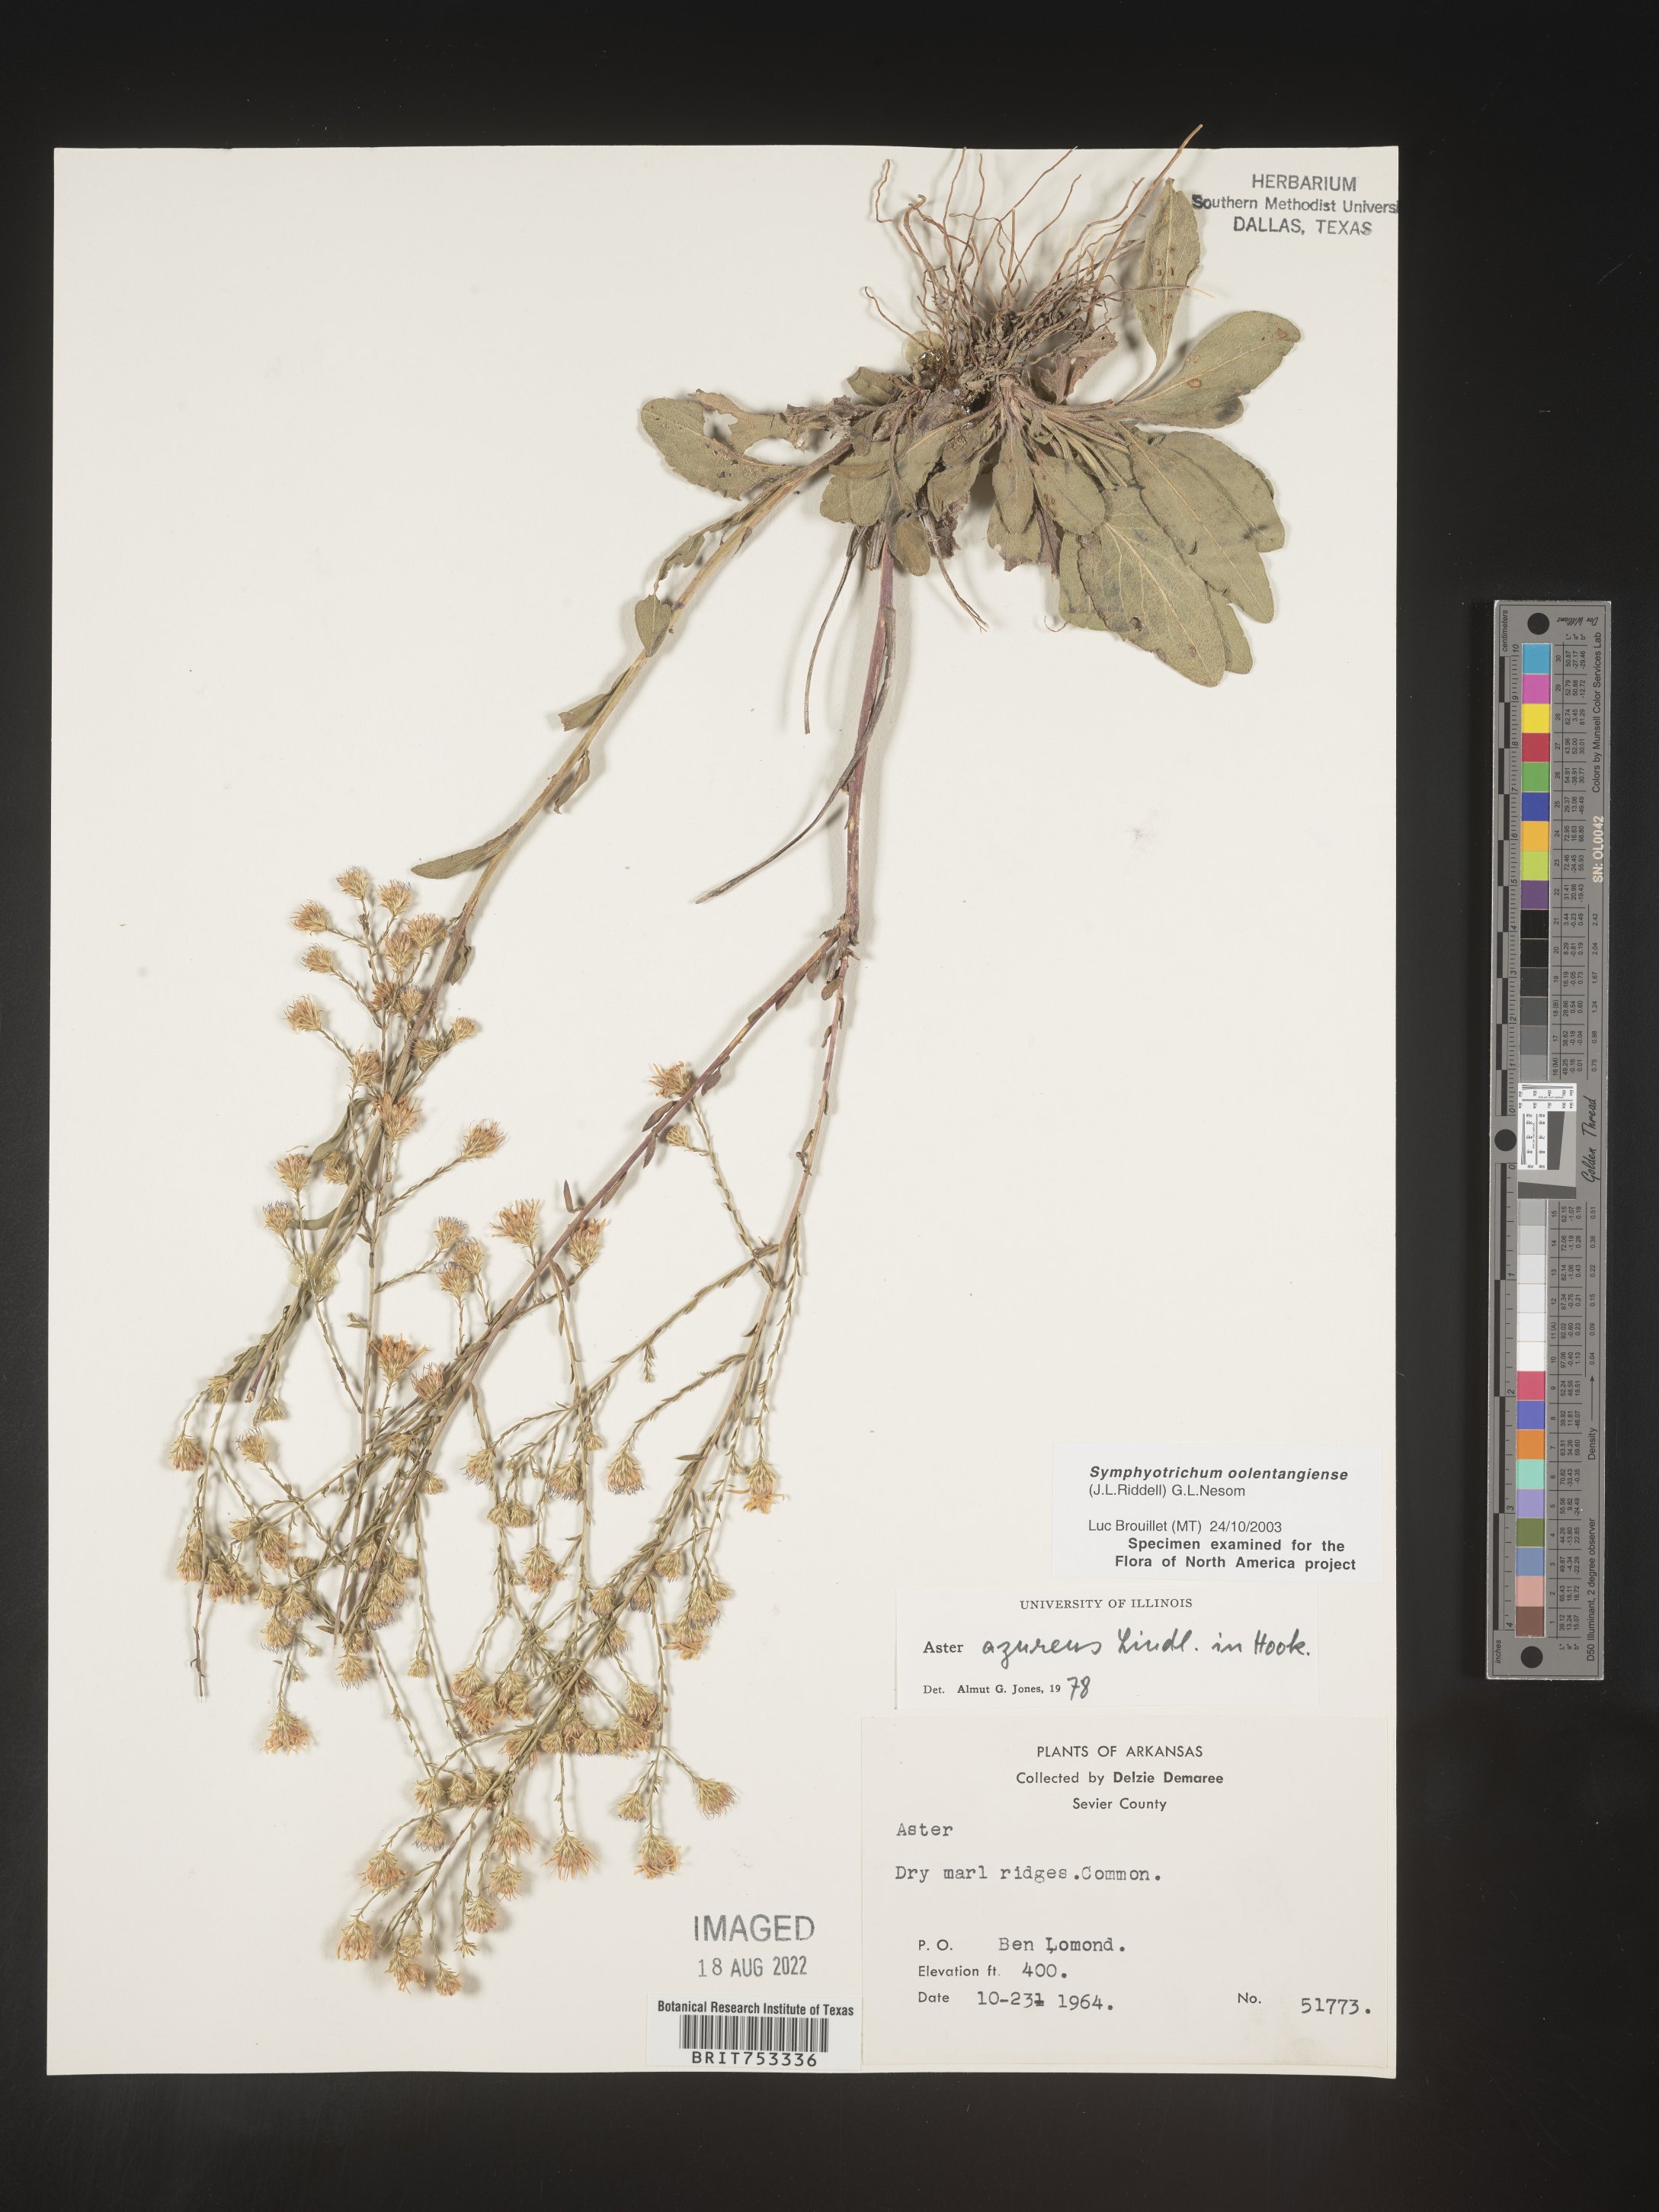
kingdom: Plantae
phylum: Tracheophyta
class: Magnoliopsida
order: Asterales
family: Asteraceae
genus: Symphyotrichum
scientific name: Symphyotrichum oolentangiense
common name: Azure aster
